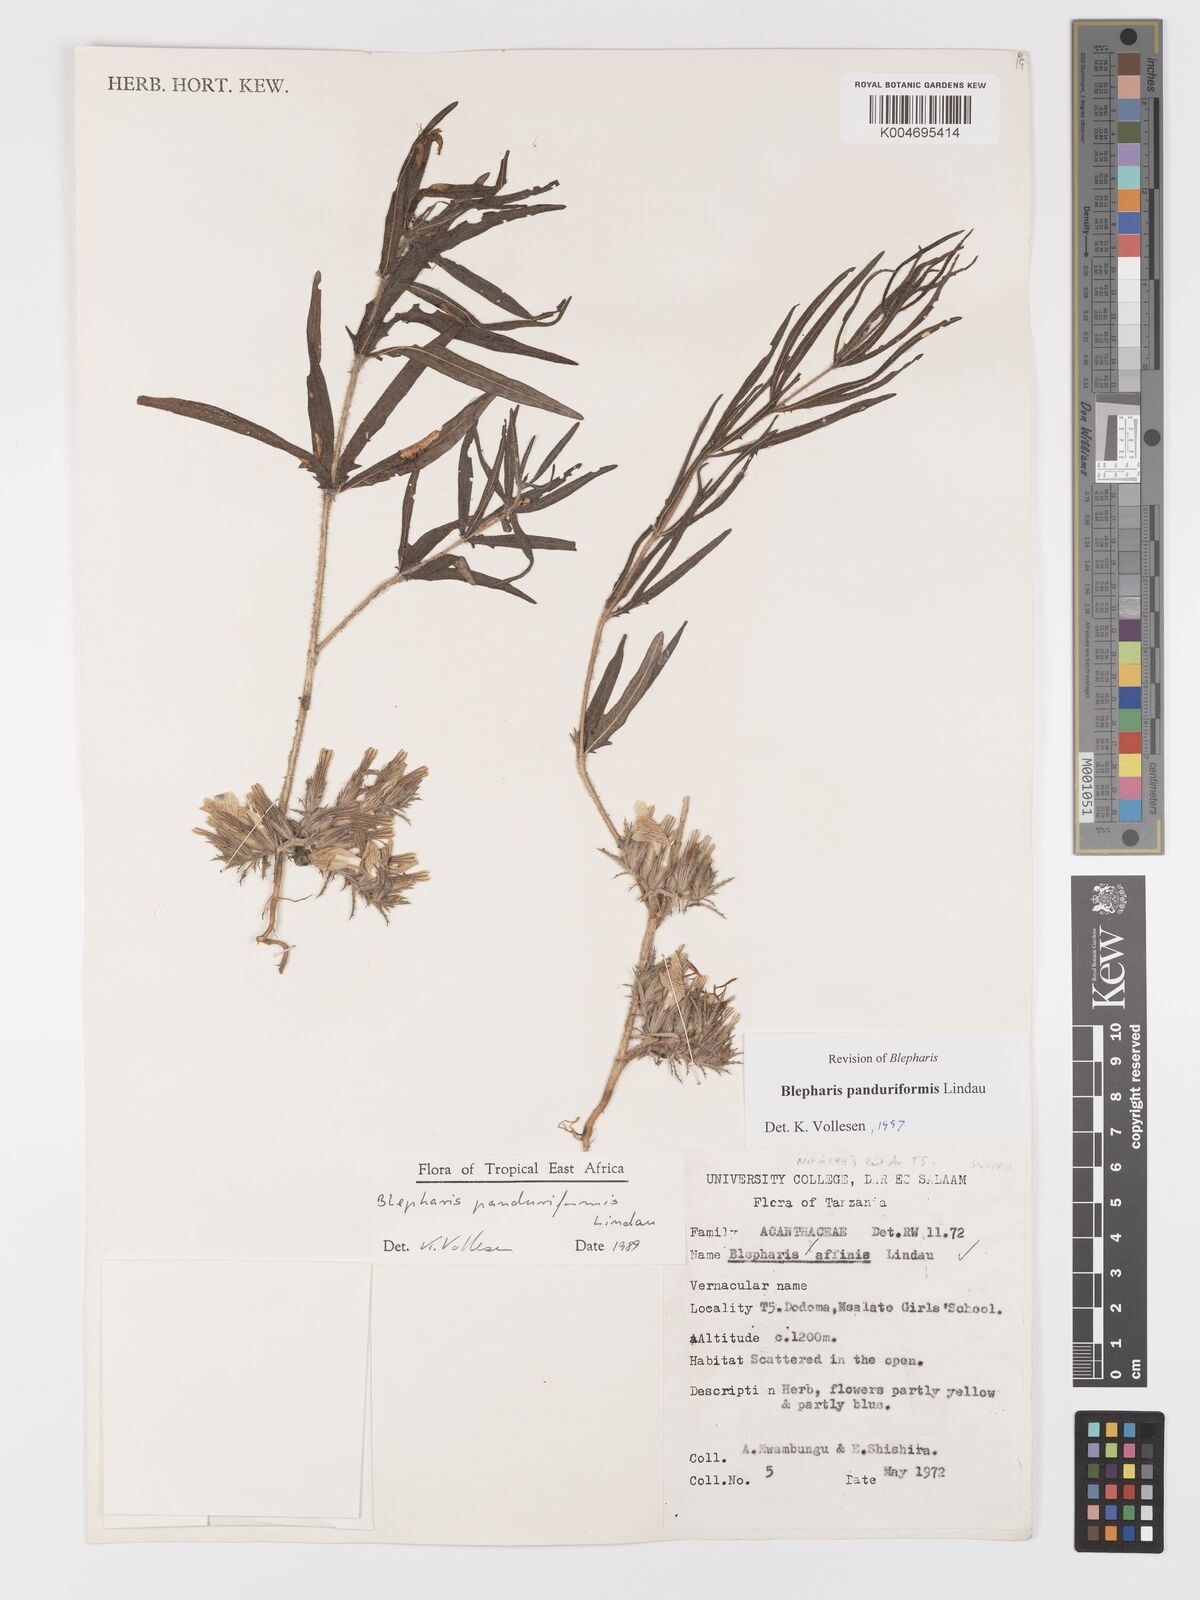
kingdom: Plantae
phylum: Tracheophyta
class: Magnoliopsida
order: Lamiales
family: Acanthaceae
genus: Blepharis
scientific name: Blepharis panduriformis
